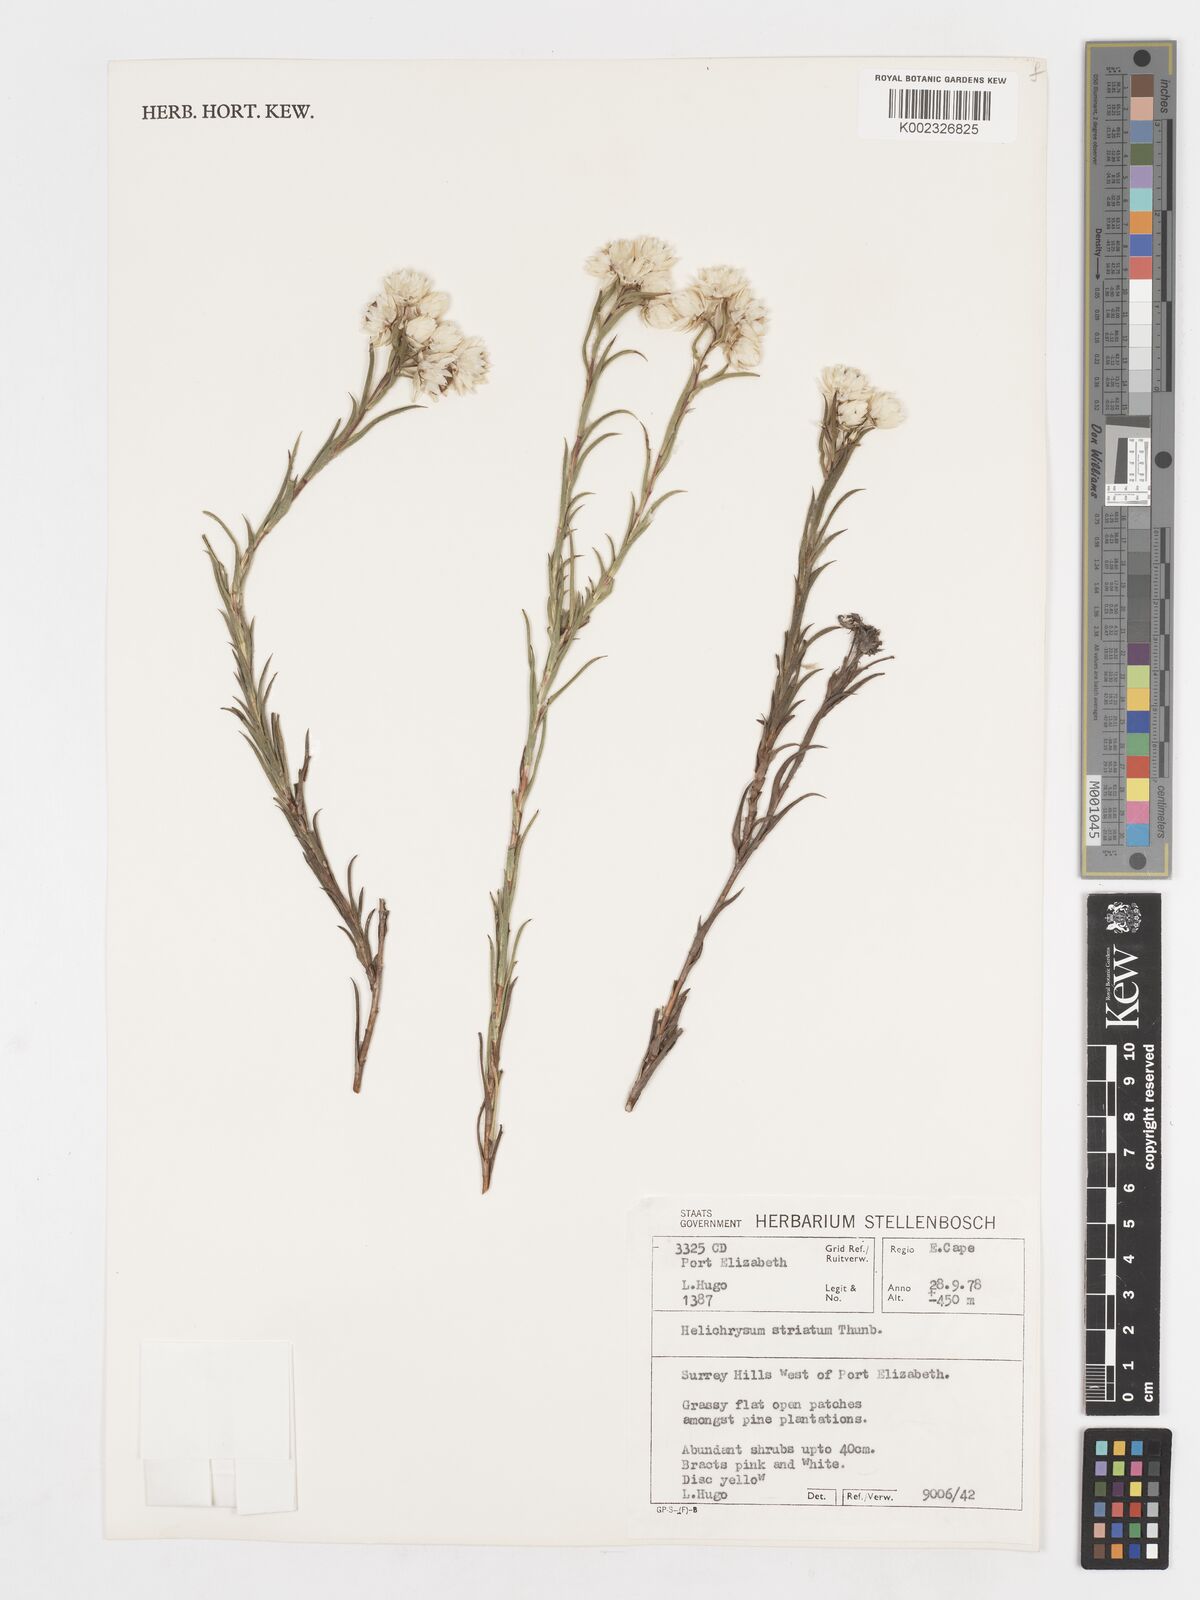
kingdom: Plantae
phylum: Tracheophyta
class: Magnoliopsida
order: Asterales
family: Asteraceae
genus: Achyranthemum
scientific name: Achyranthemum striatum
